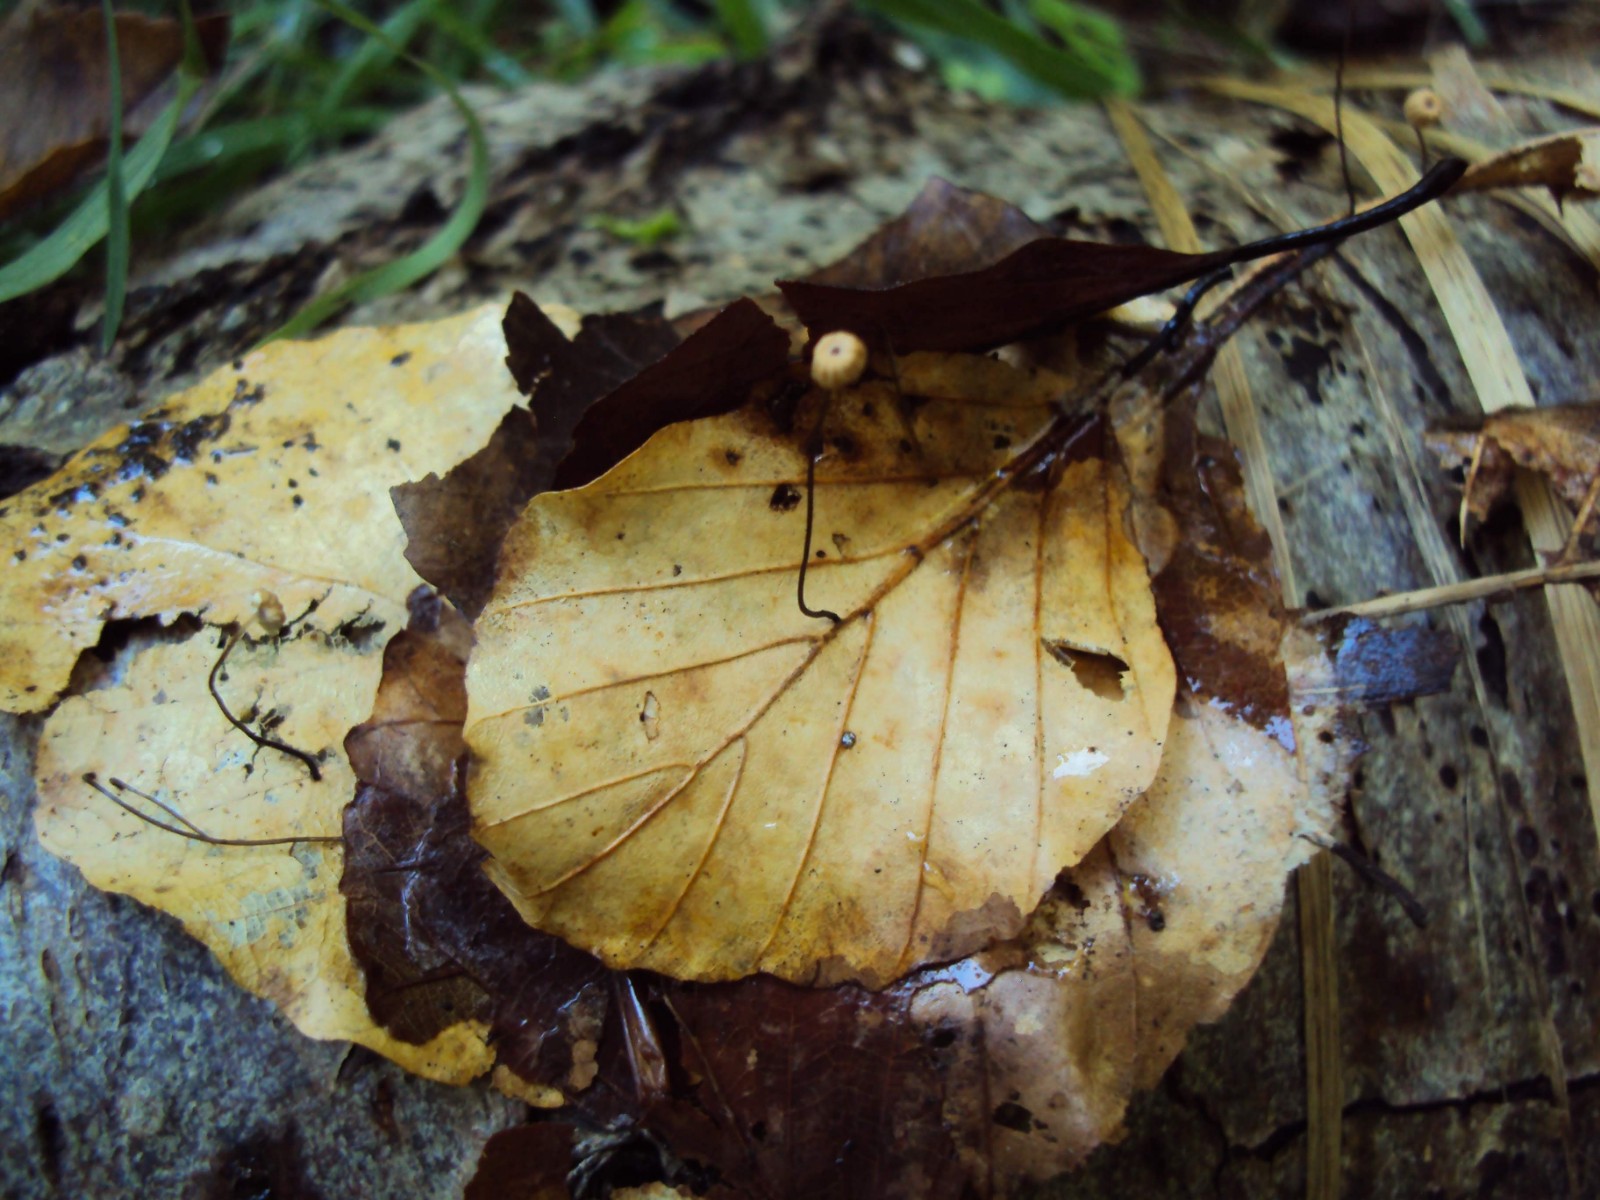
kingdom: Fungi
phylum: Basidiomycota
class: Agaricomycetes
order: Agaricales
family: Marasmiaceae
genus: Marasmius
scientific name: Marasmius bulliardii
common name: furet bruskhat
